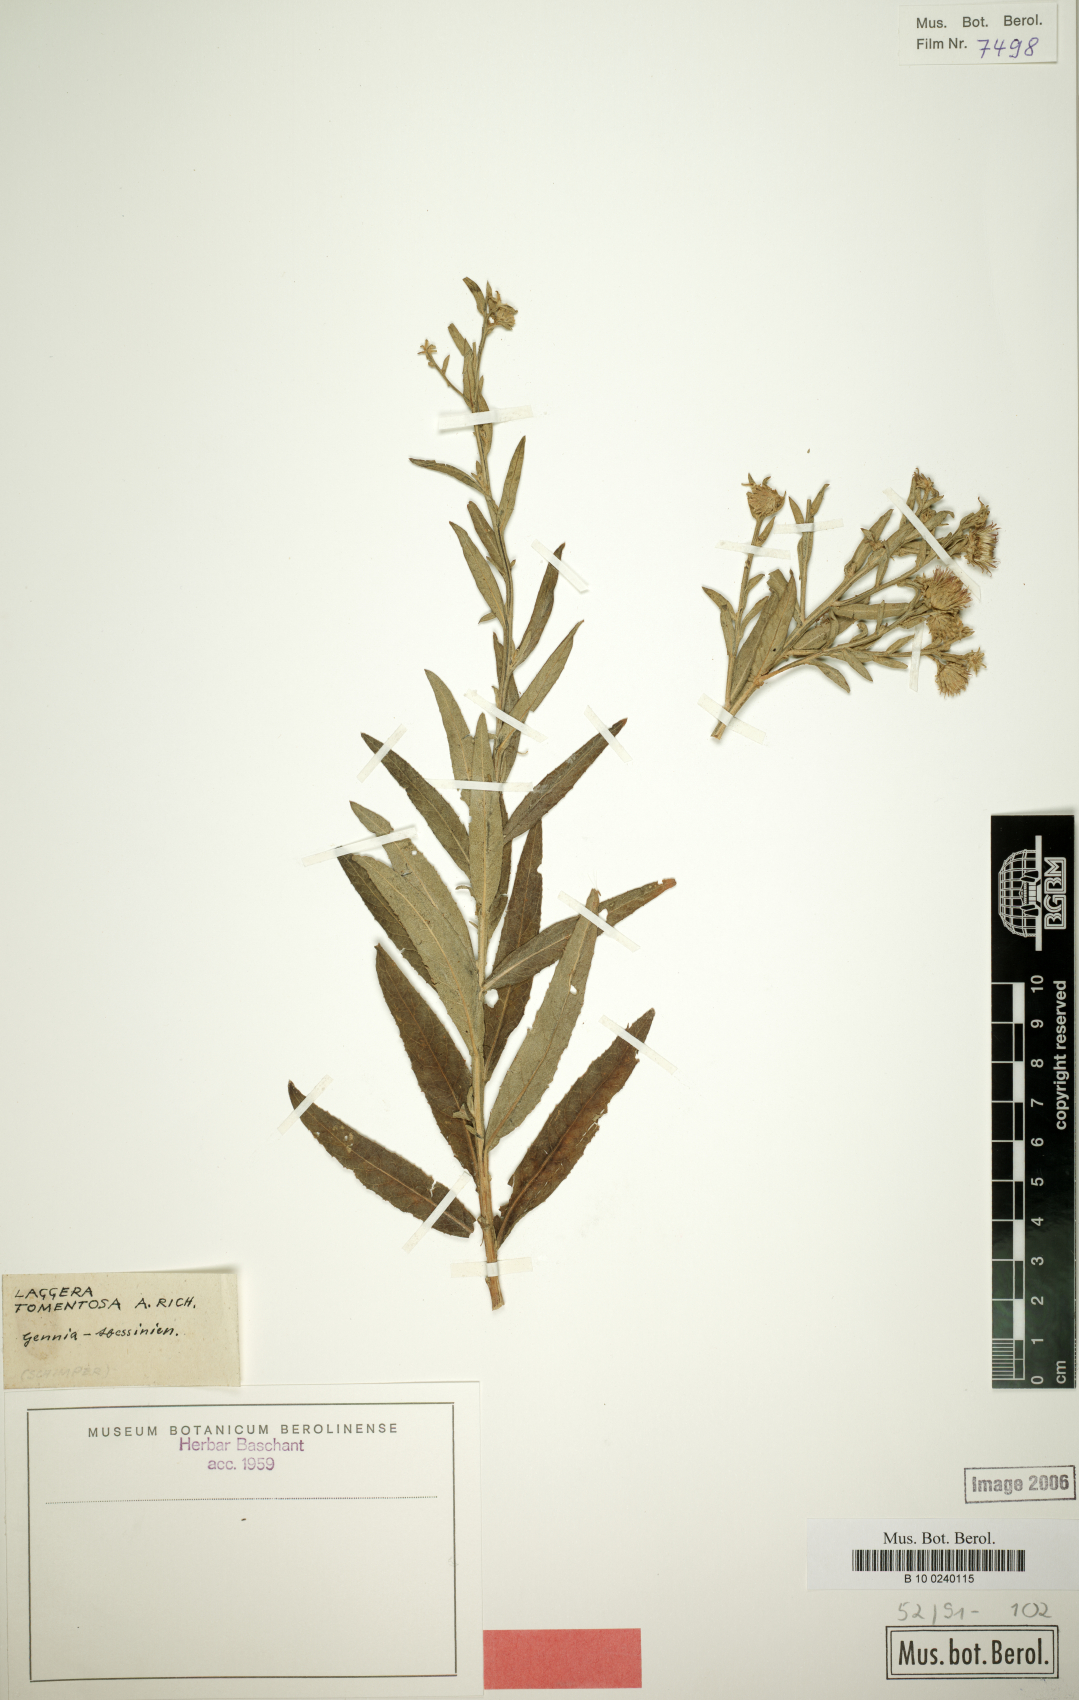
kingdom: Plantae
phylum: Tracheophyta
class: Magnoliopsida
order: Asterales
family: Asteraceae
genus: Laggera
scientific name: Laggera tomentosa
